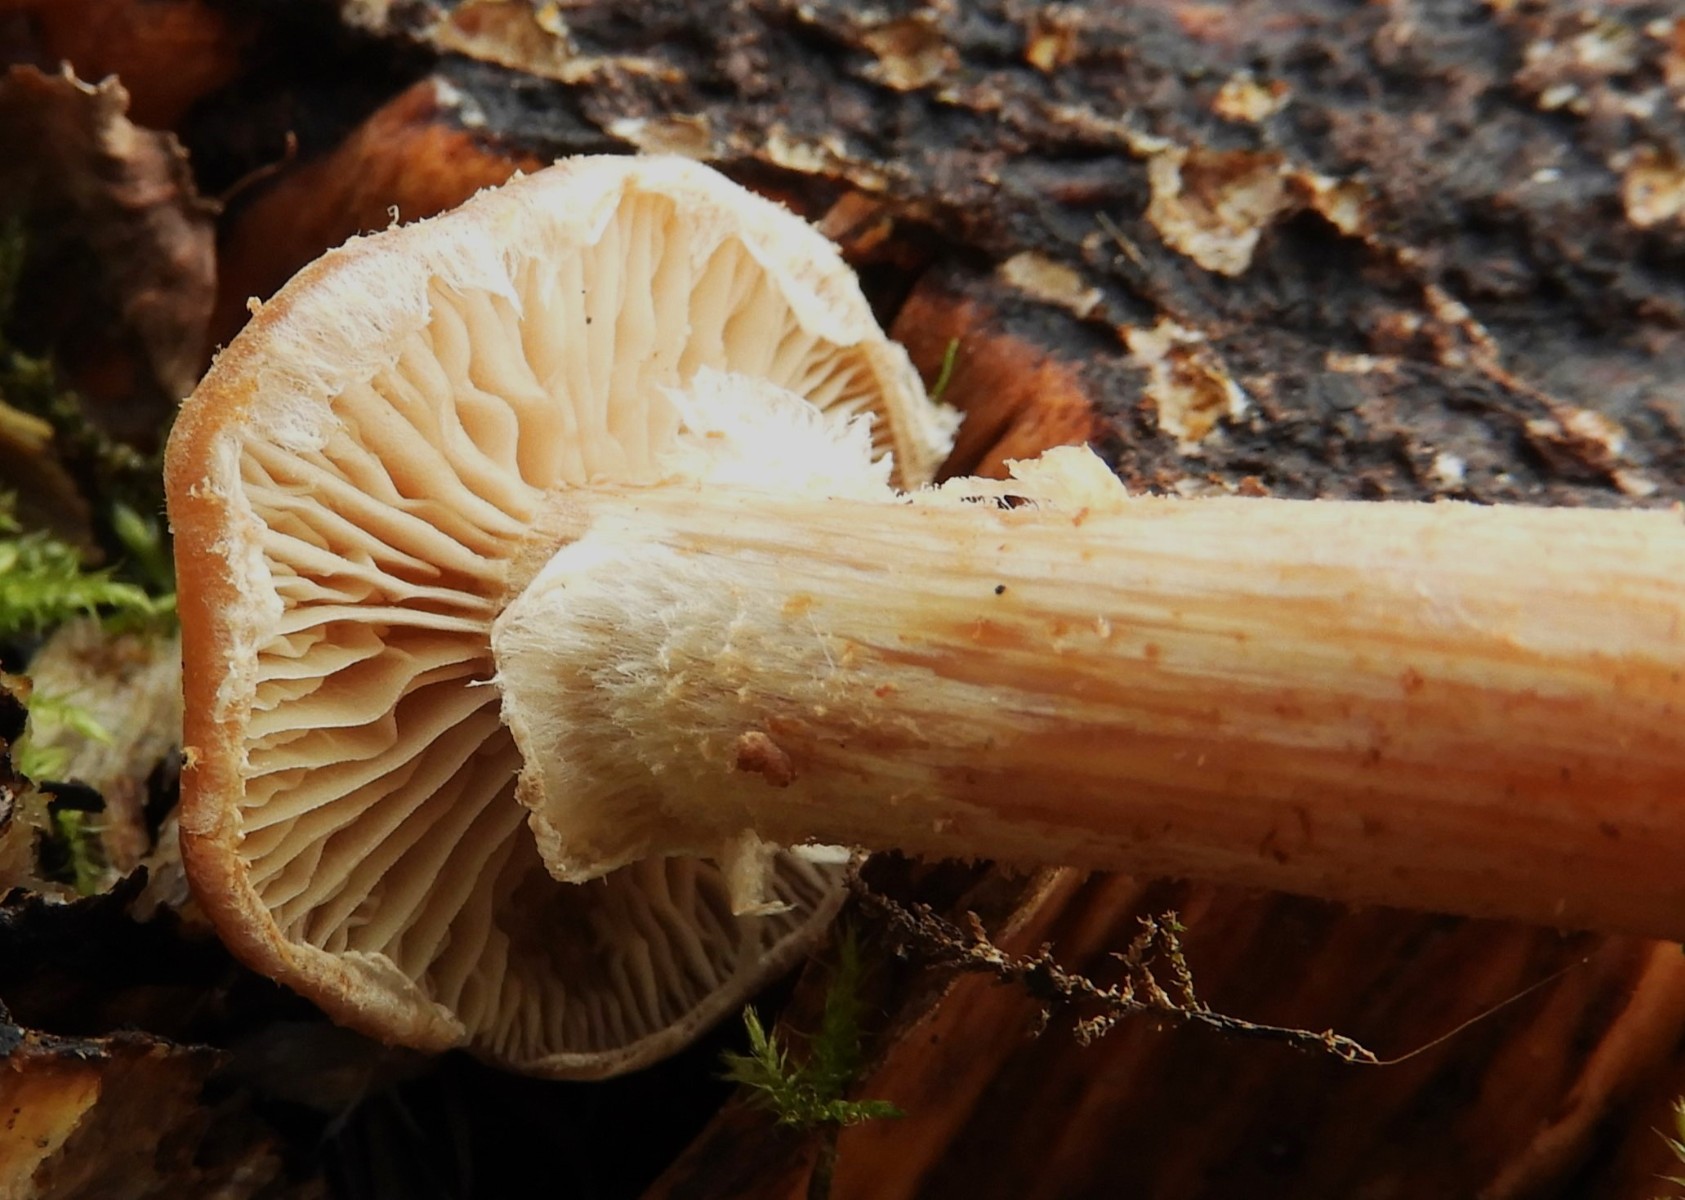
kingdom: Fungi
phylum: Basidiomycota
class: Agaricomycetes
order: Agaricales
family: Strophariaceae
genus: Kuehneromyces
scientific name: Kuehneromyces mutabilis
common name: foranderlig skælhat
